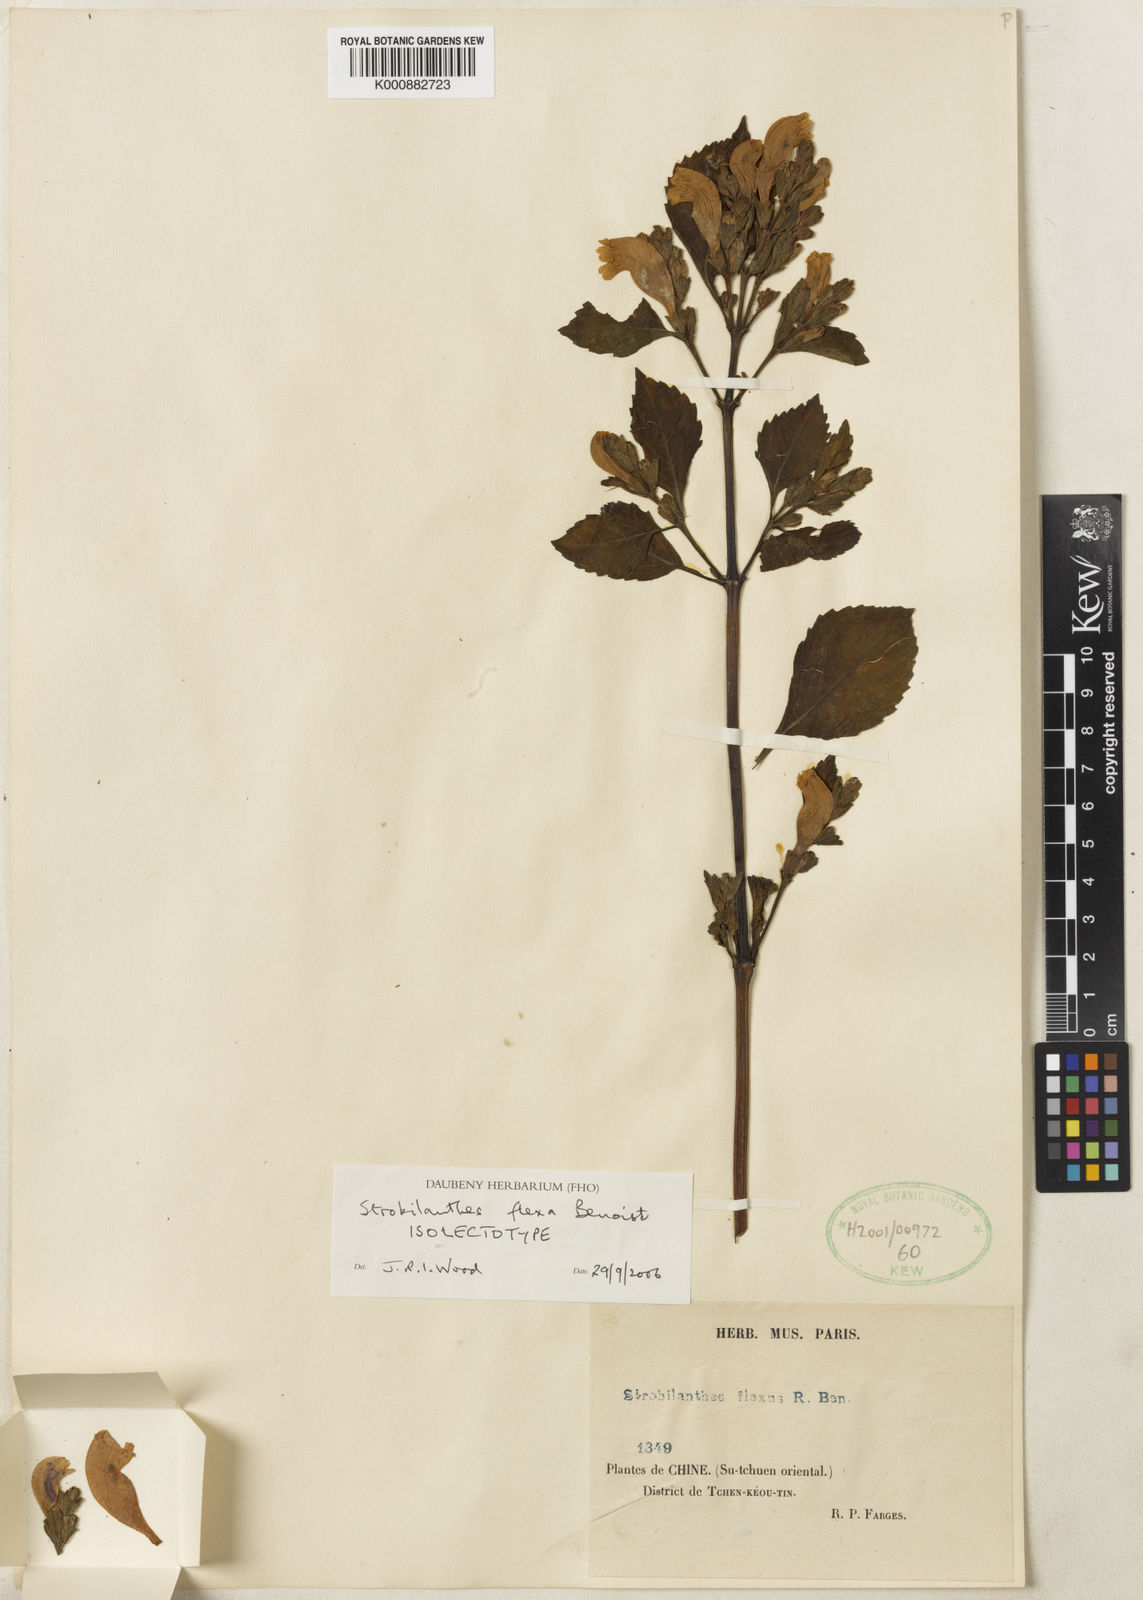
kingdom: Plantae
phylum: Tracheophyta
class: Magnoliopsida
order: Lamiales
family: Acanthaceae
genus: Strobilanthes
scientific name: Strobilanthes versicolor
